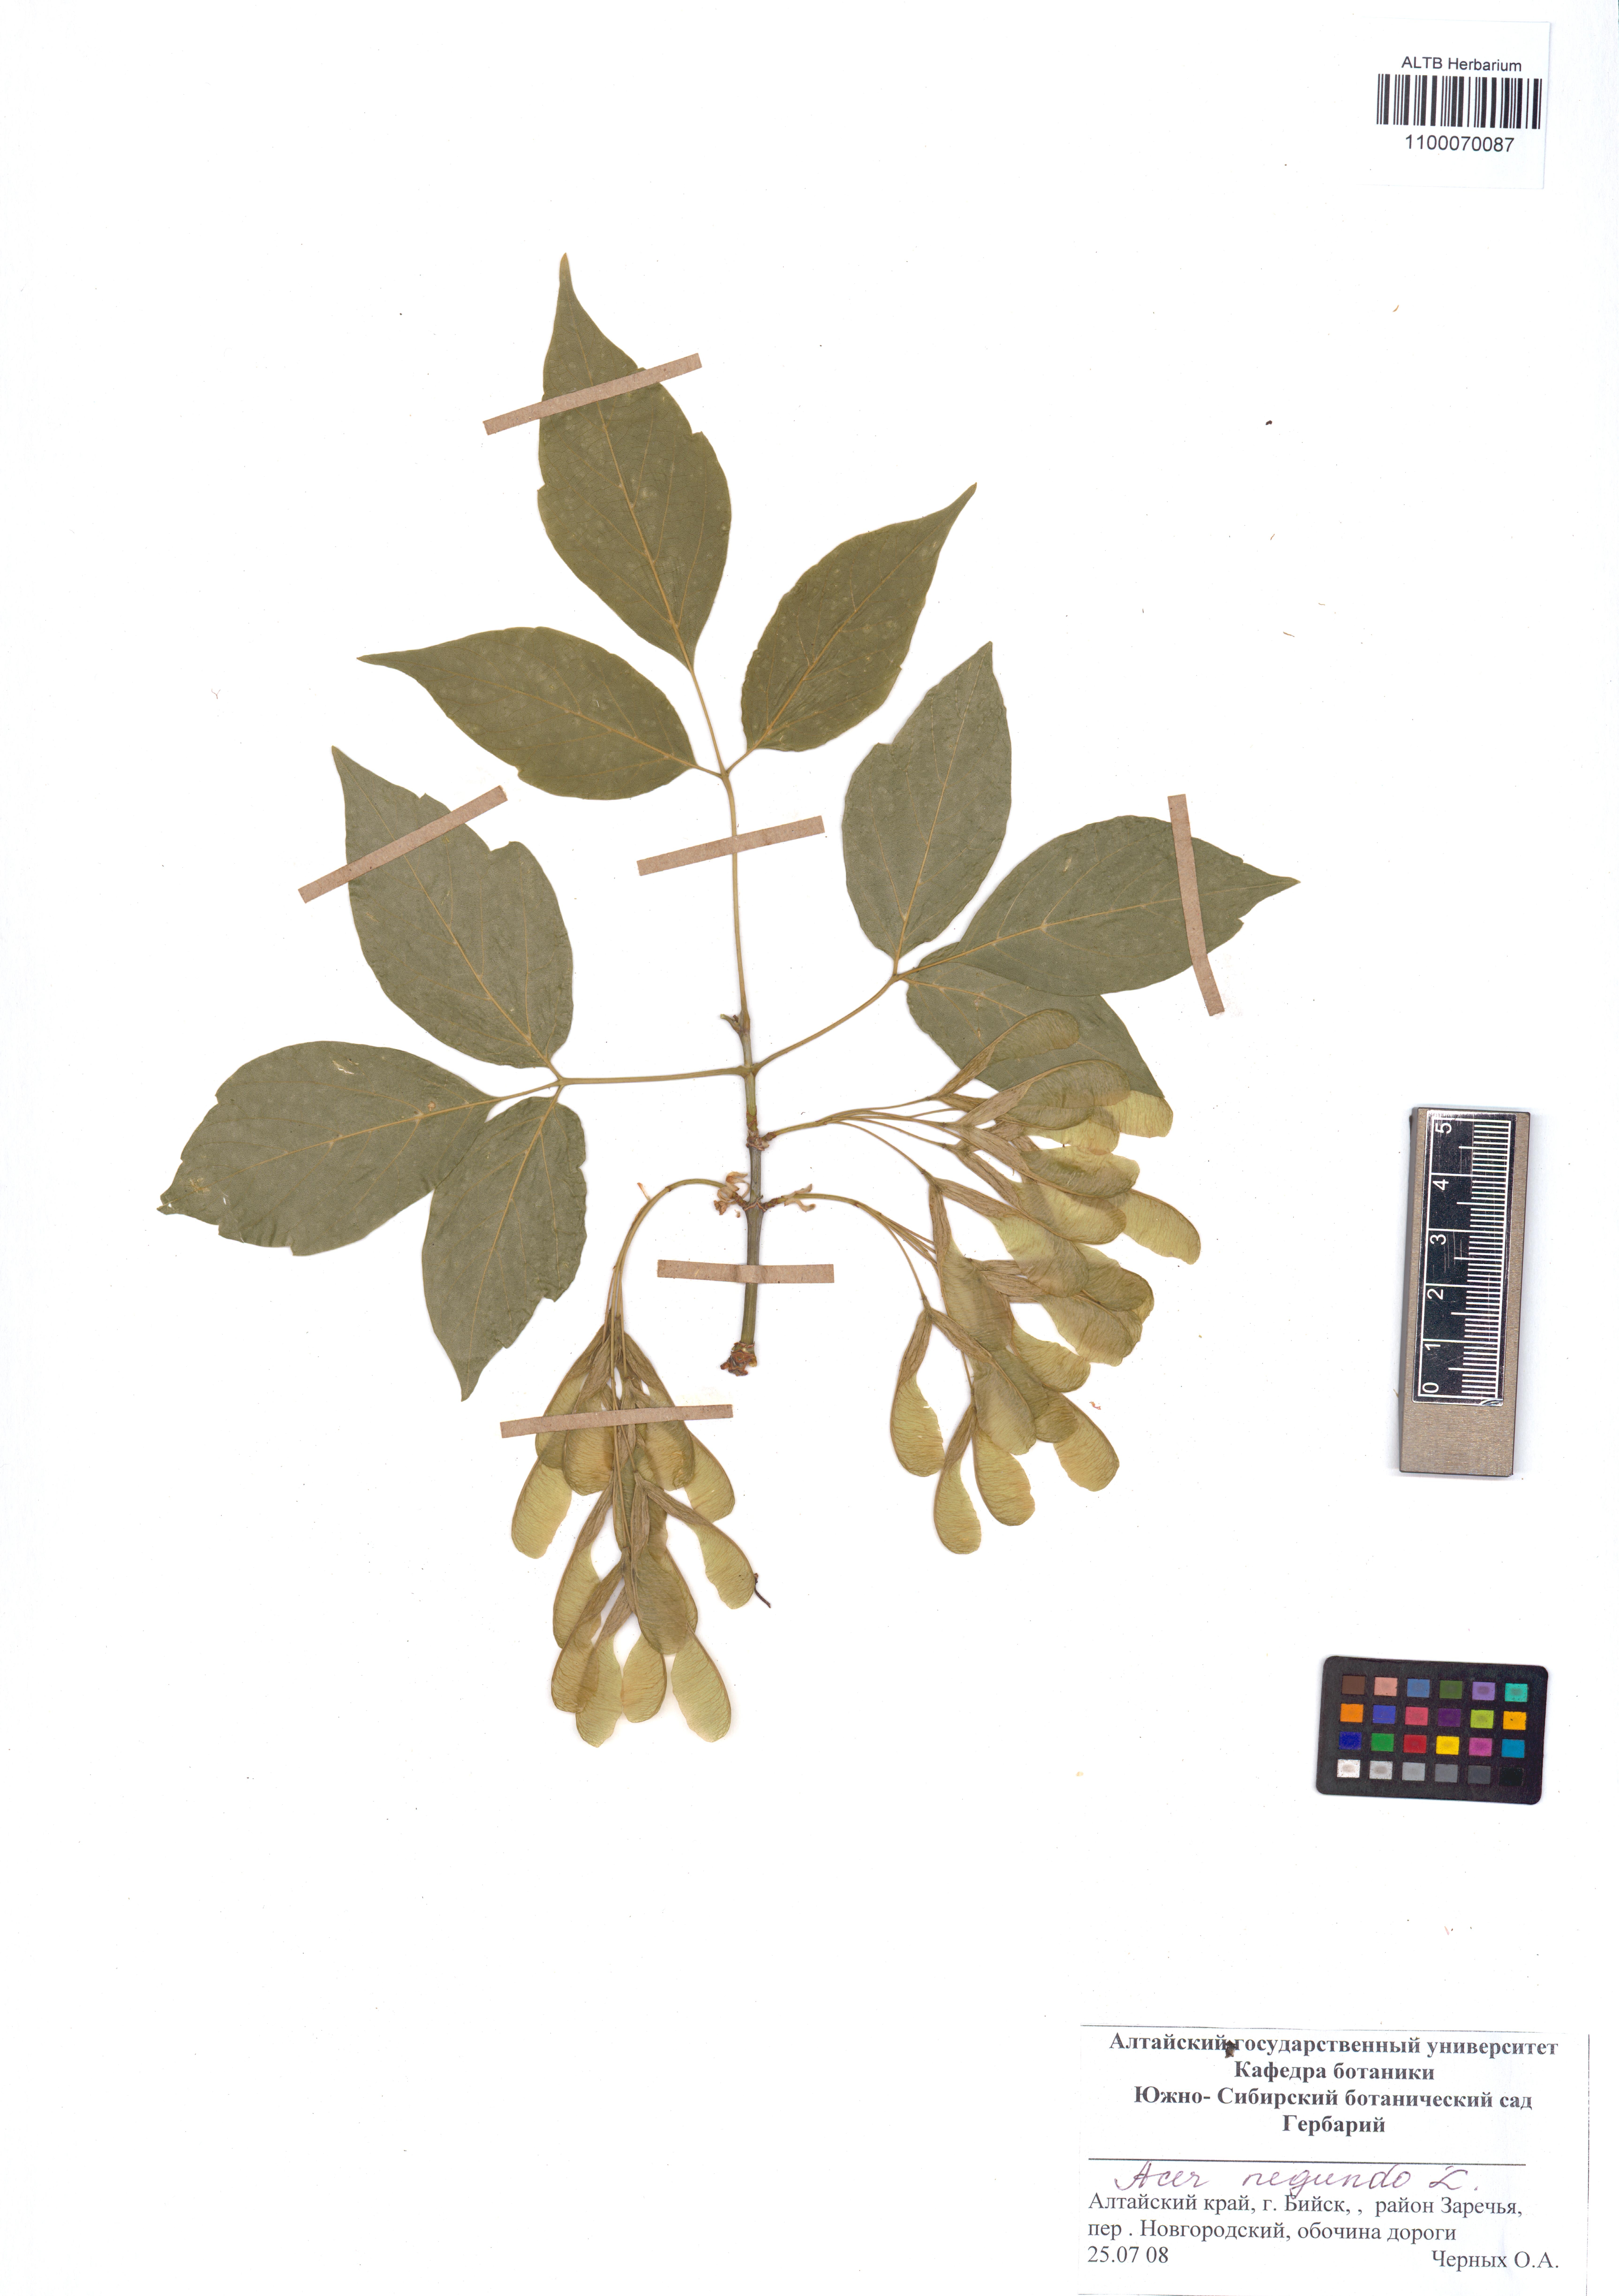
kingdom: Plantae
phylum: Tracheophyta
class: Magnoliopsida
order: Sapindales
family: Sapindaceae
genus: Acer
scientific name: Acer negundo
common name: Ashleaf maple
